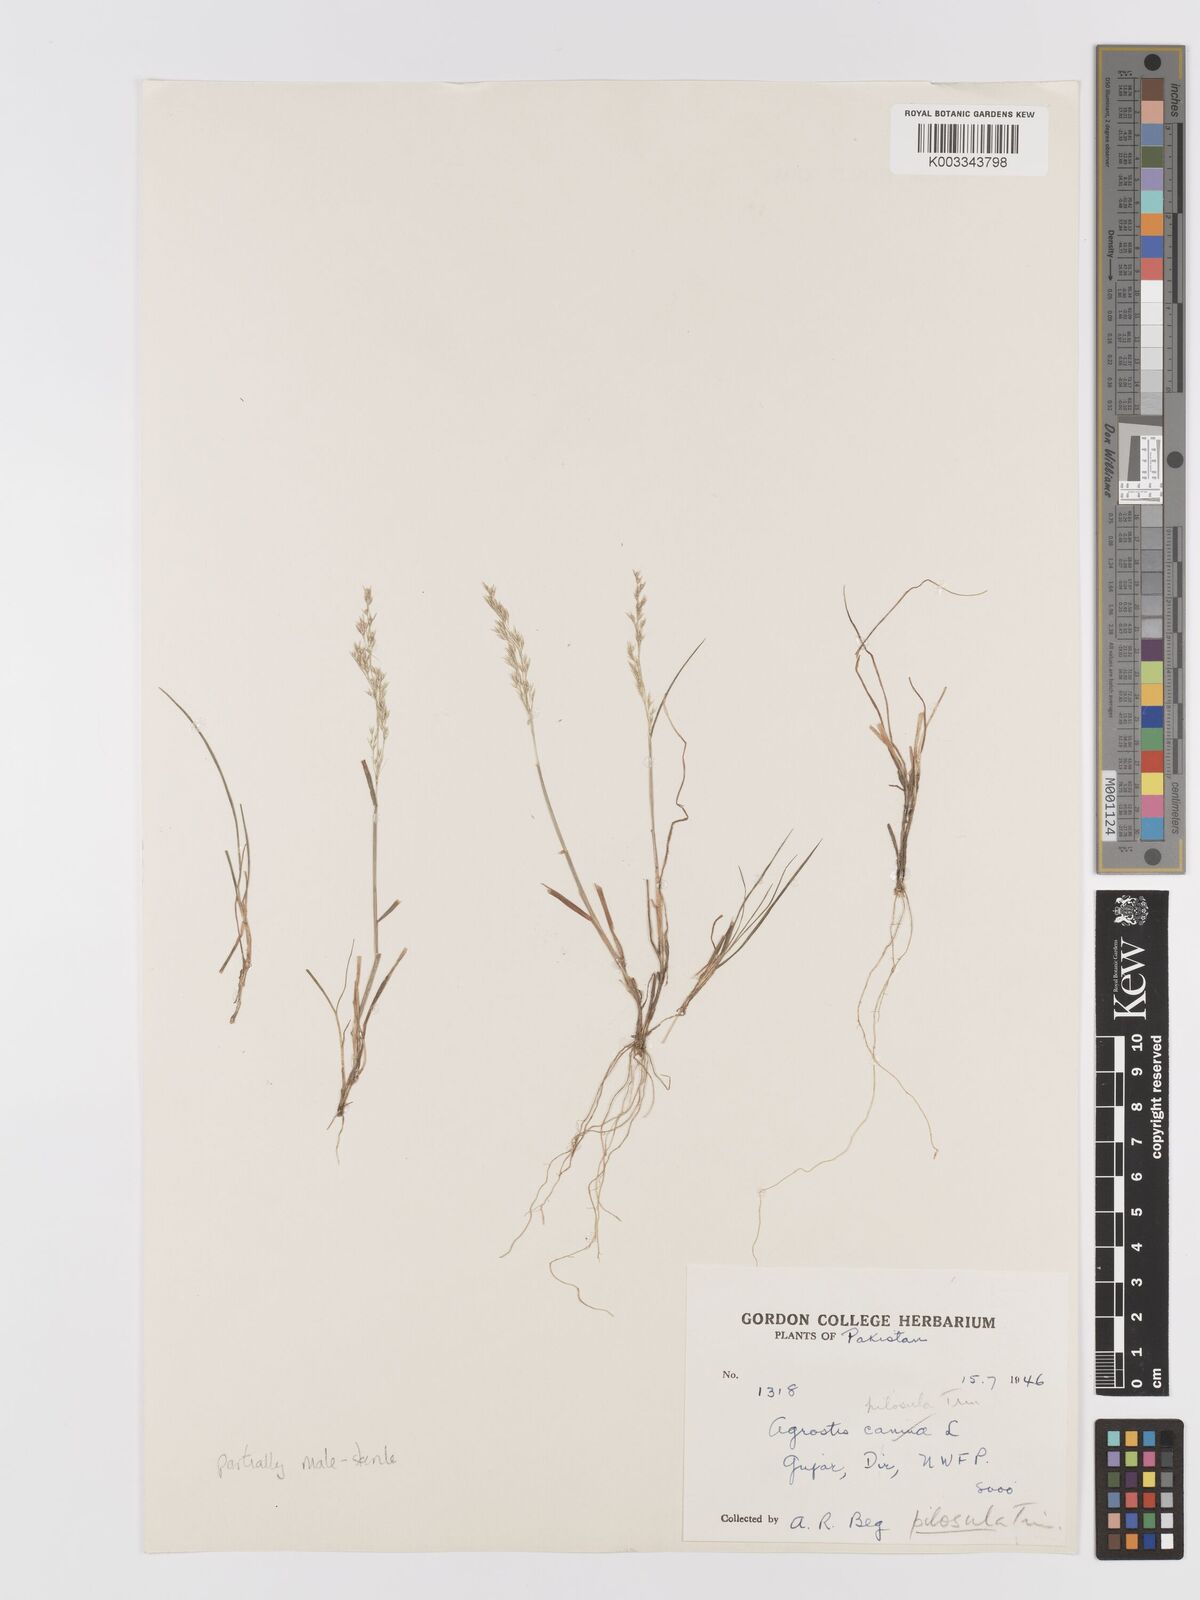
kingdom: Plantae
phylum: Tracheophyta
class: Liliopsida
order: Poales
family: Poaceae
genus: Agrostis
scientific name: Agrostis pilosula
